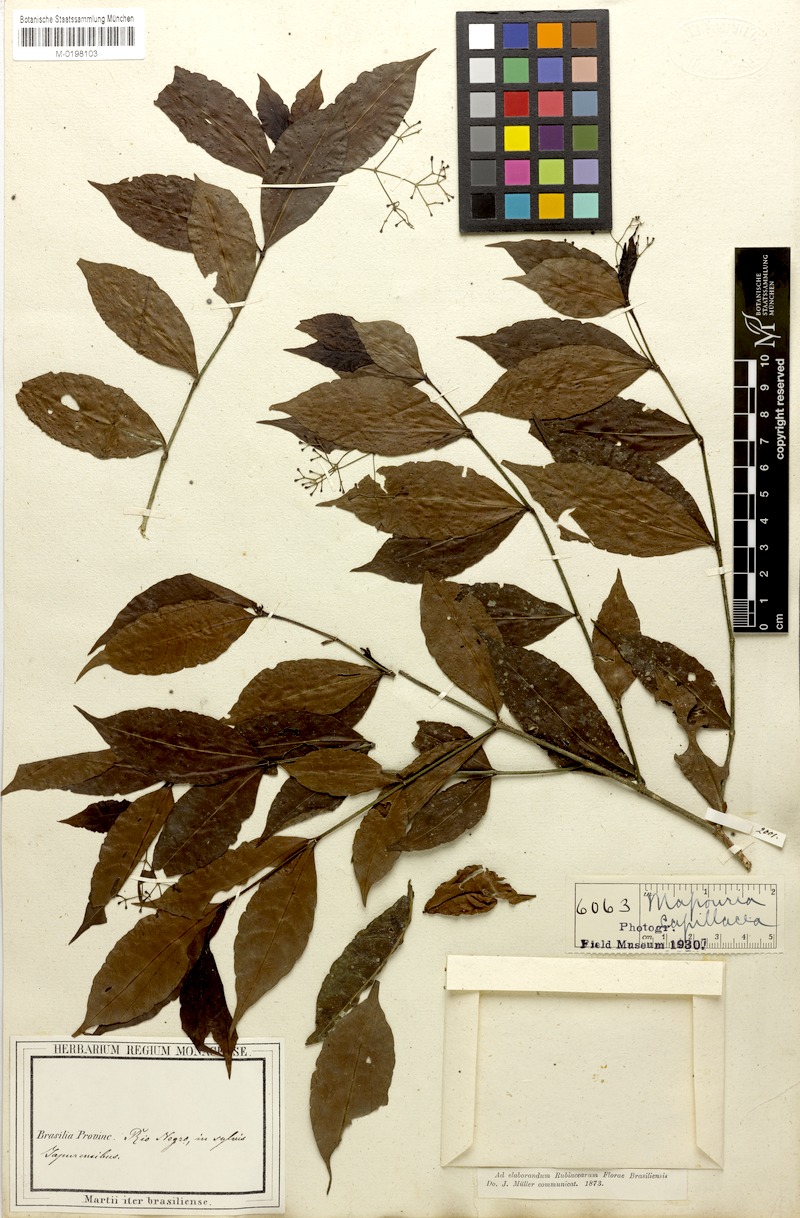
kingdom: Plantae
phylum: Tracheophyta
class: Magnoliopsida
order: Gentianales
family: Rubiaceae
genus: Psychotria
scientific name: Psychotria capillacea
